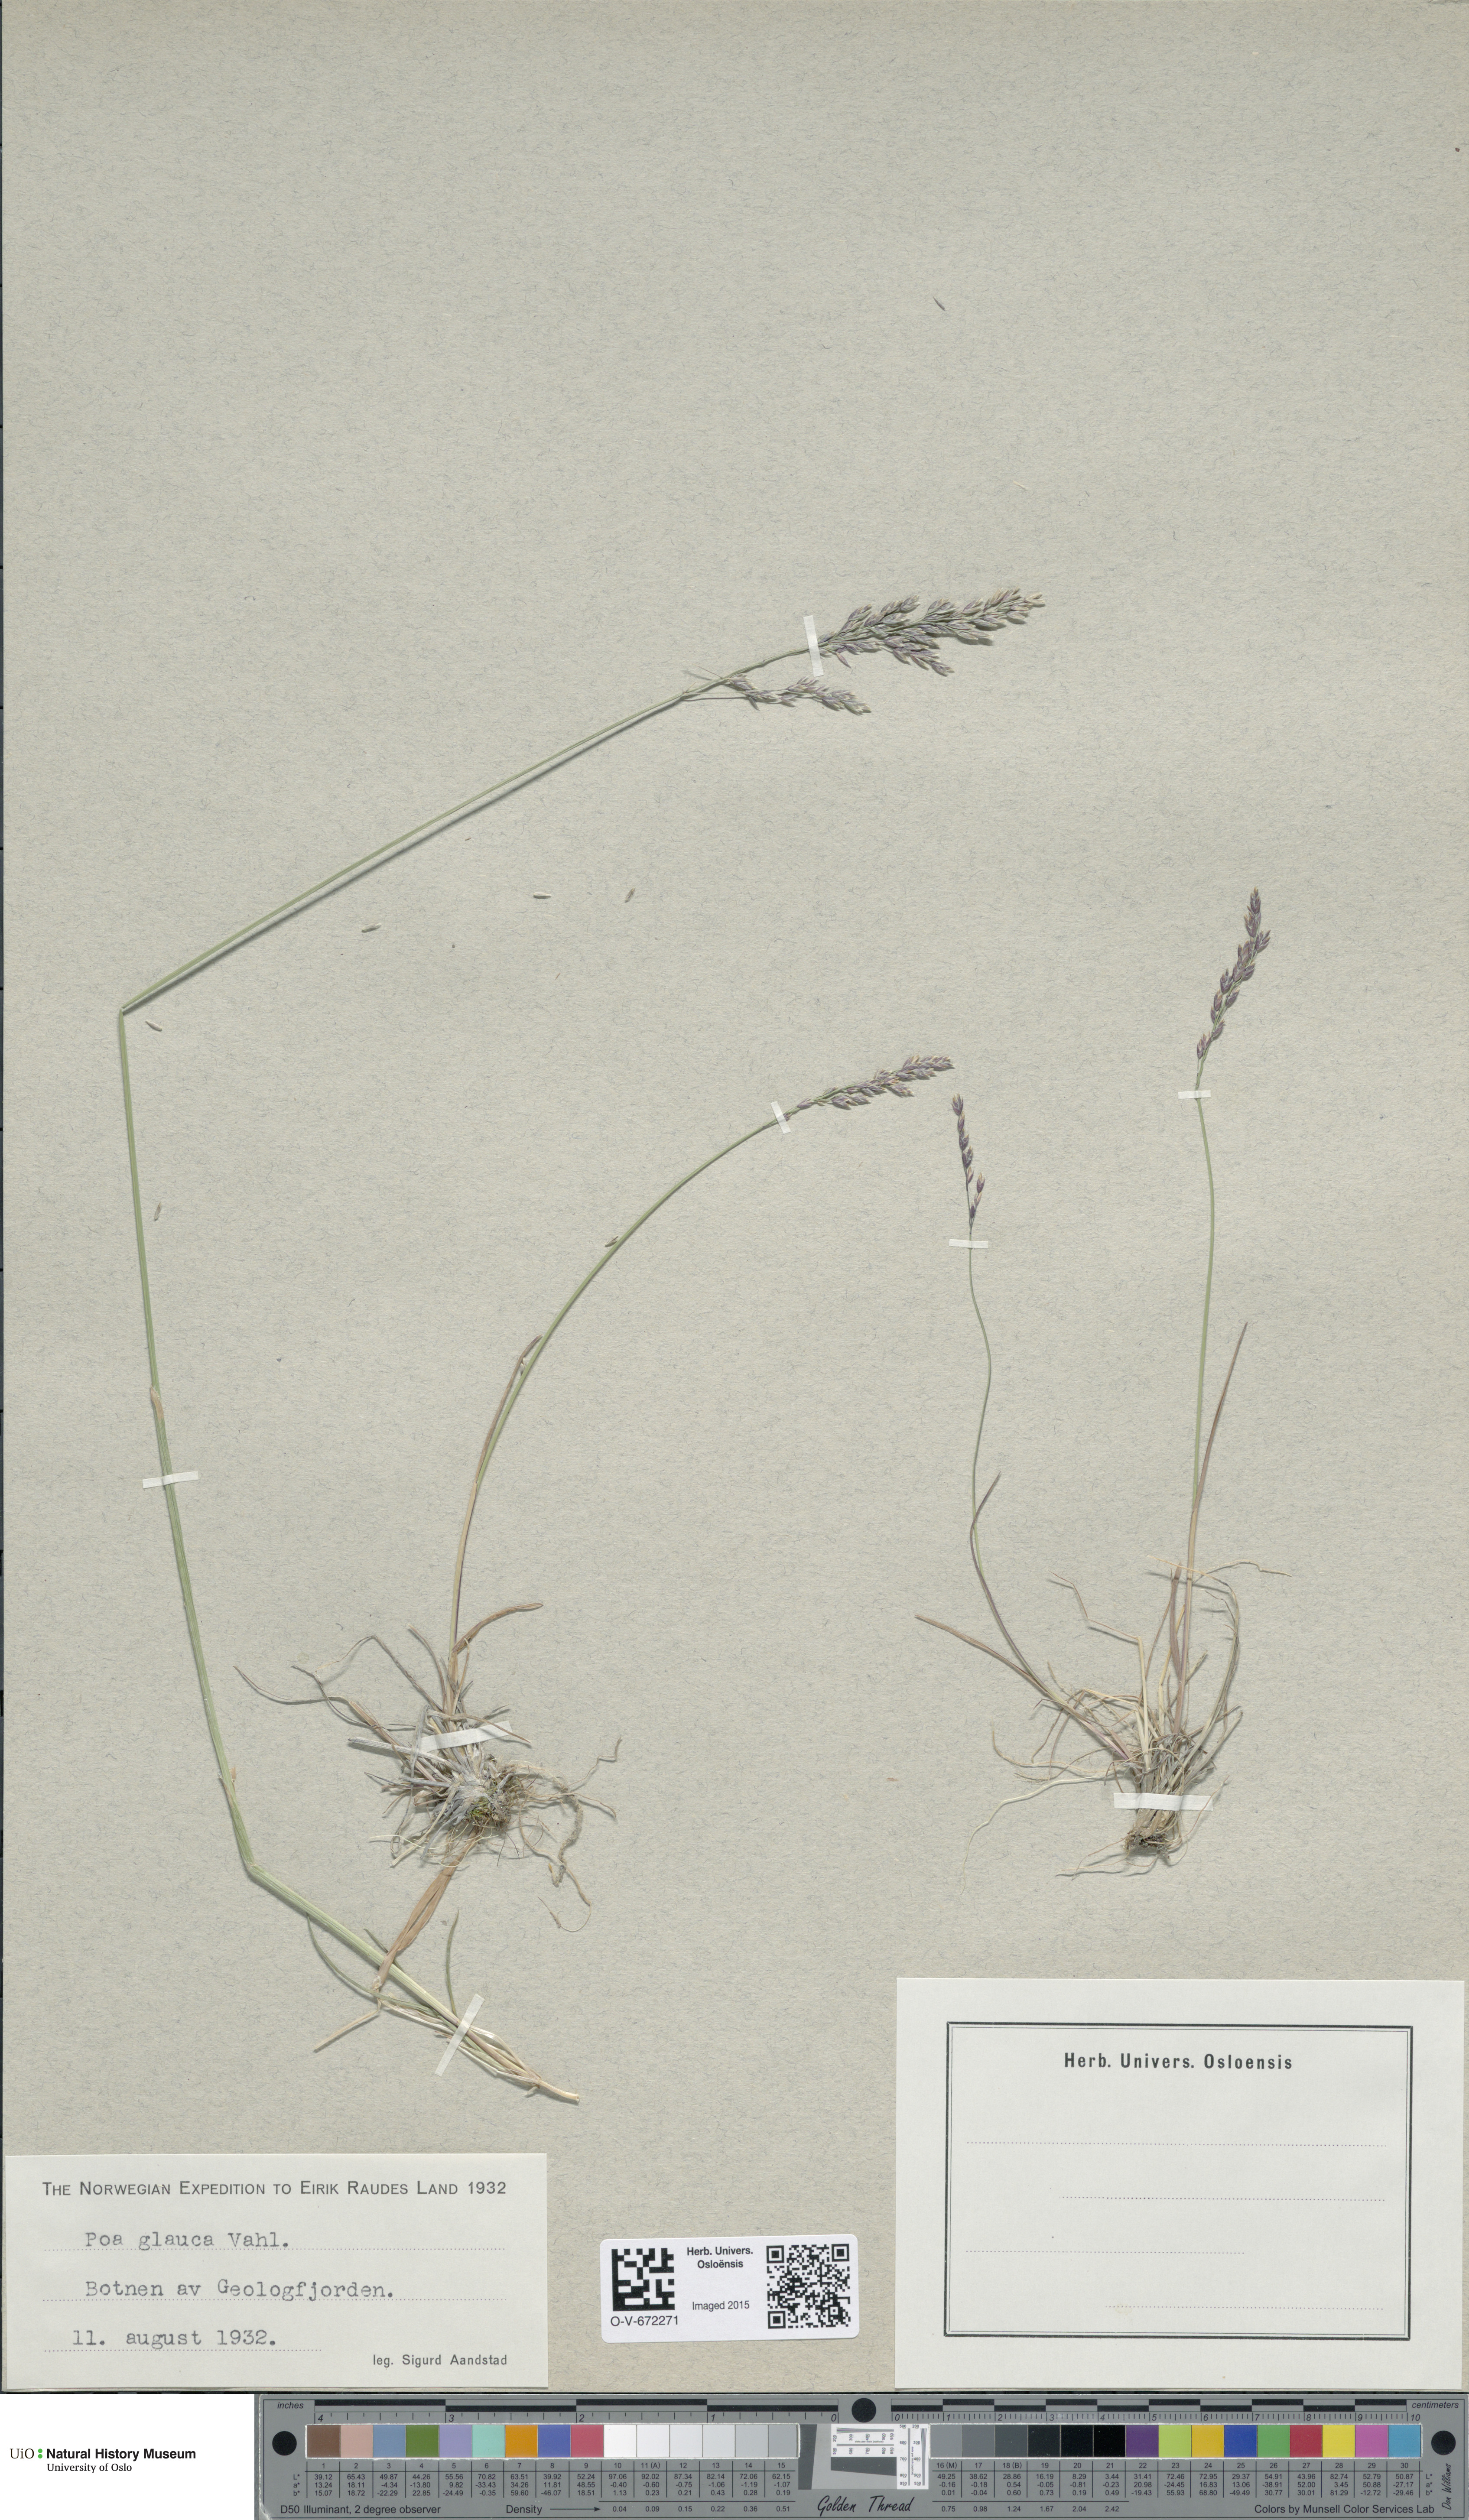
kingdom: Plantae
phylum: Tracheophyta
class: Liliopsida
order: Poales
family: Poaceae
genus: Poa
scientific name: Poa glauca
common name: Glaucous bluegrass
